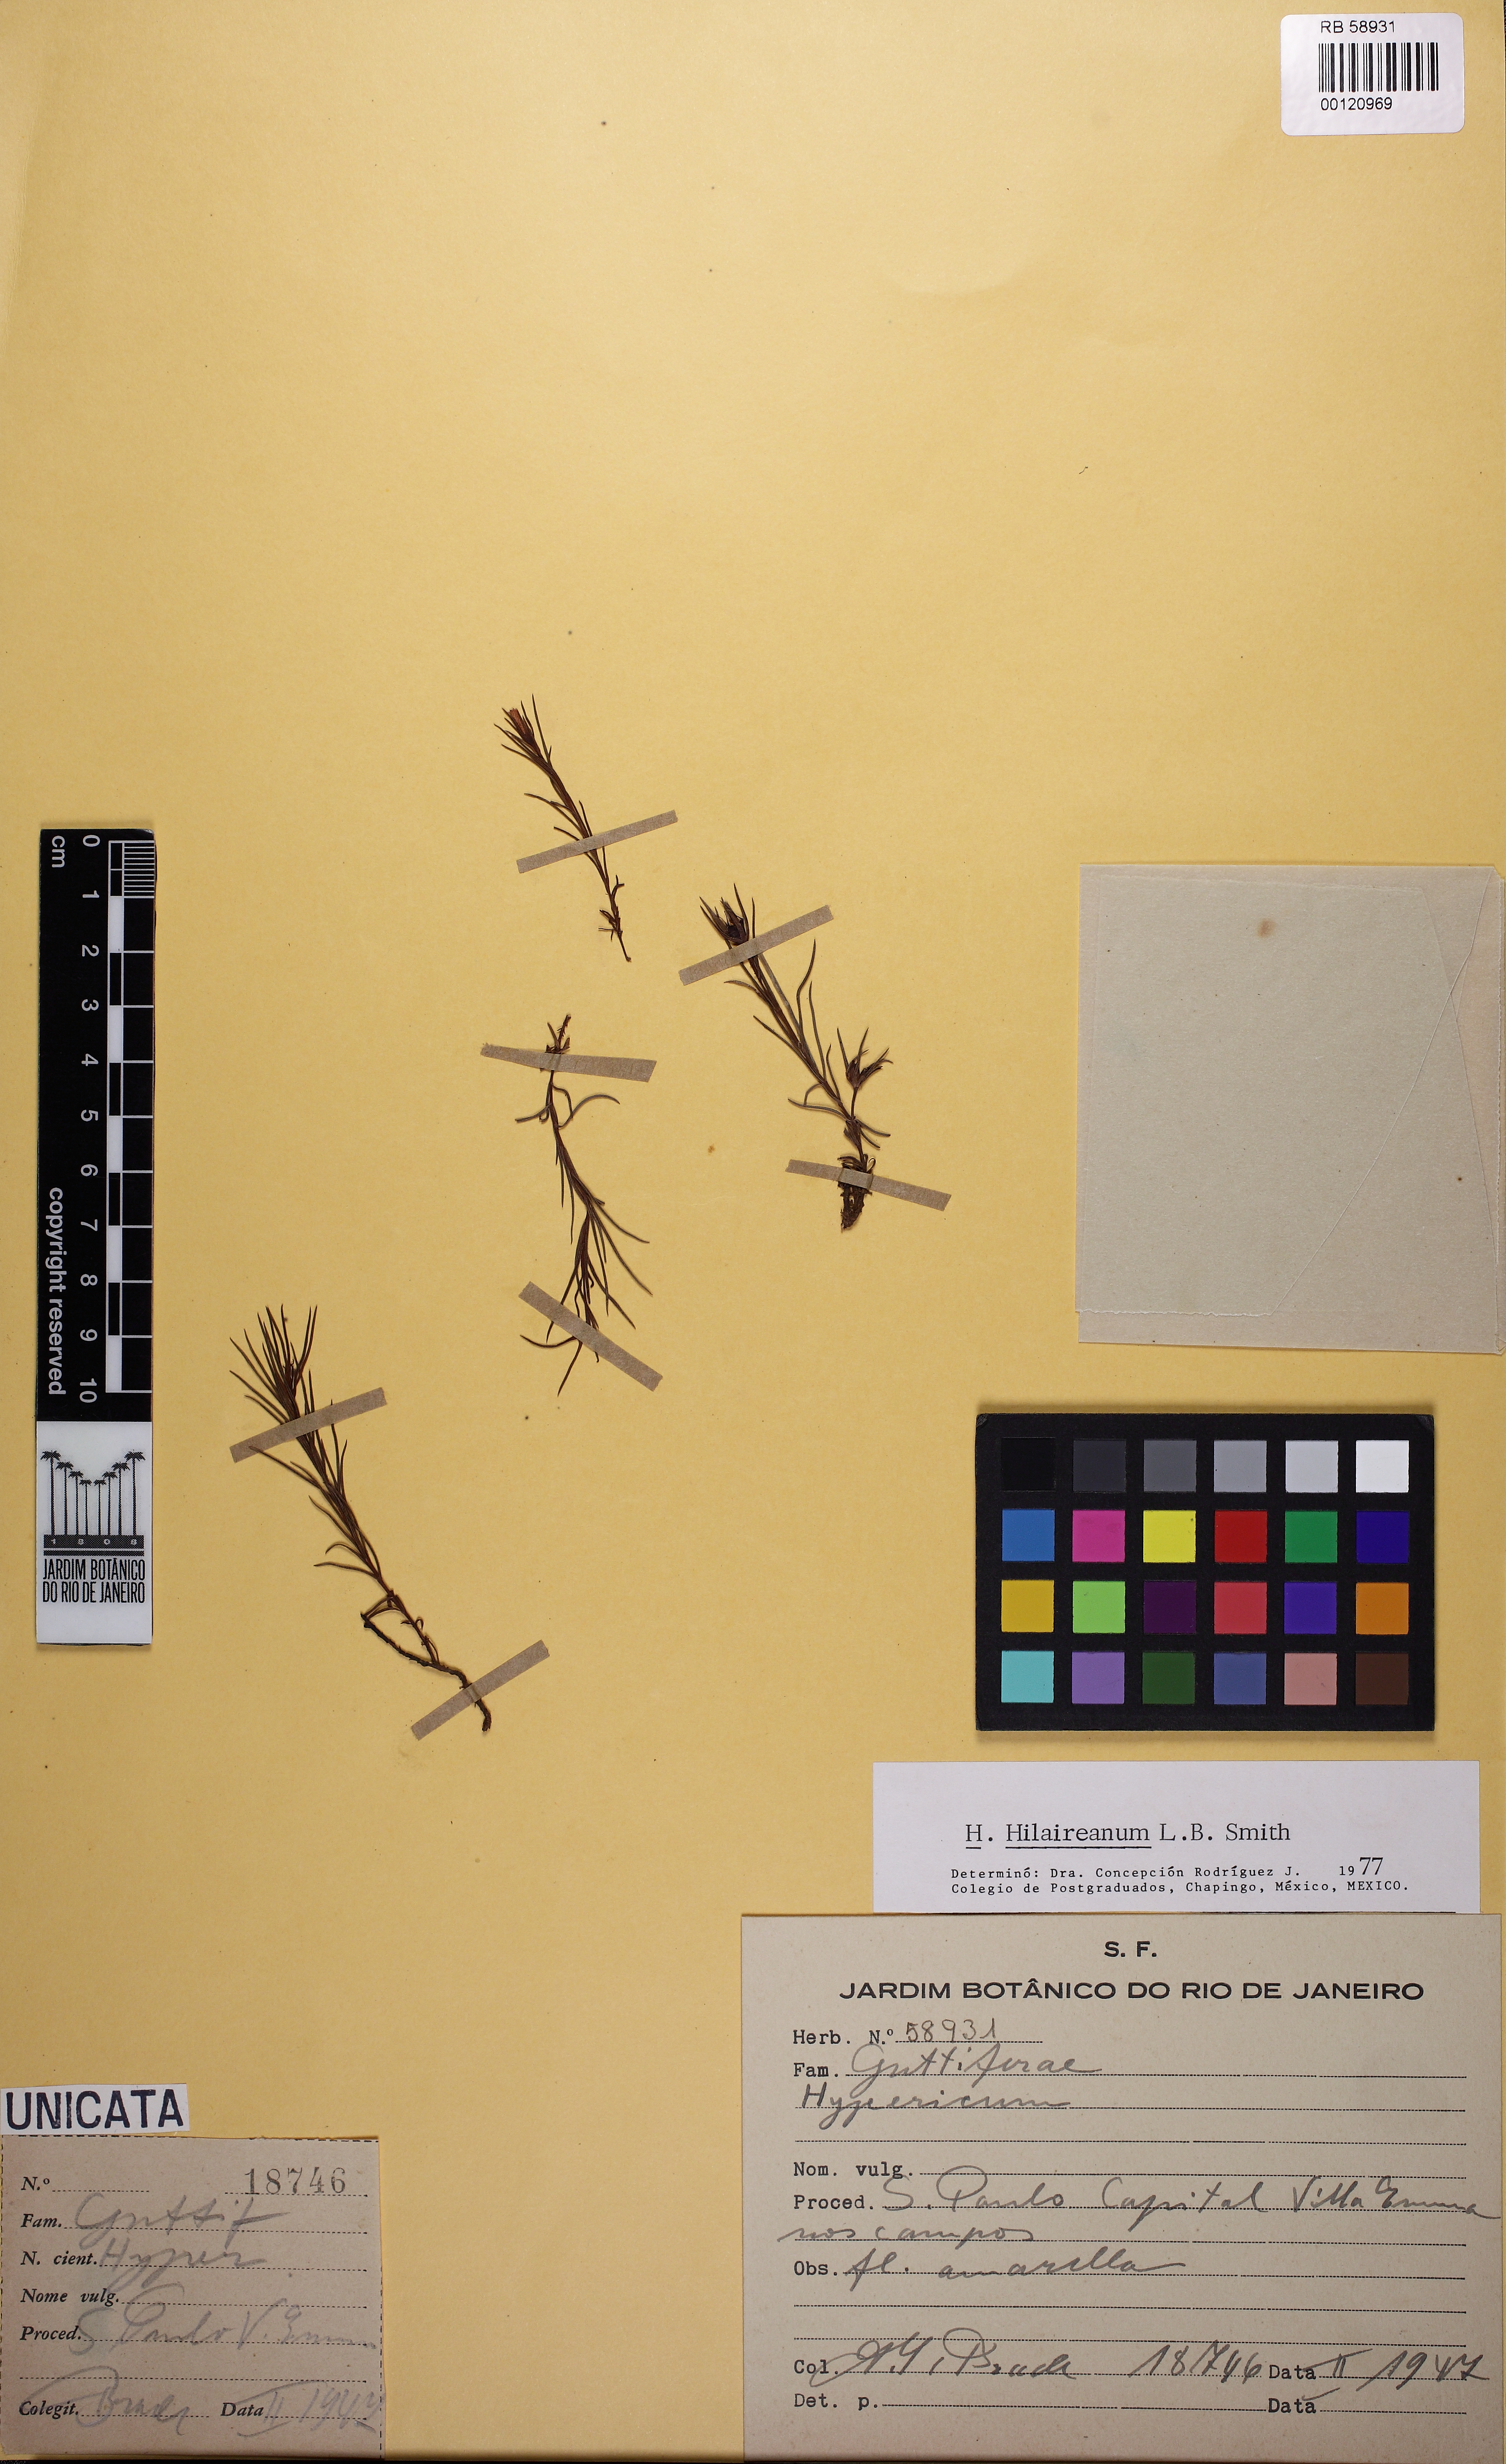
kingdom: Plantae
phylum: Tracheophyta
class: Magnoliopsida
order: Malpighiales
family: Clusiaceae
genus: Hipericum
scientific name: Hipericum
